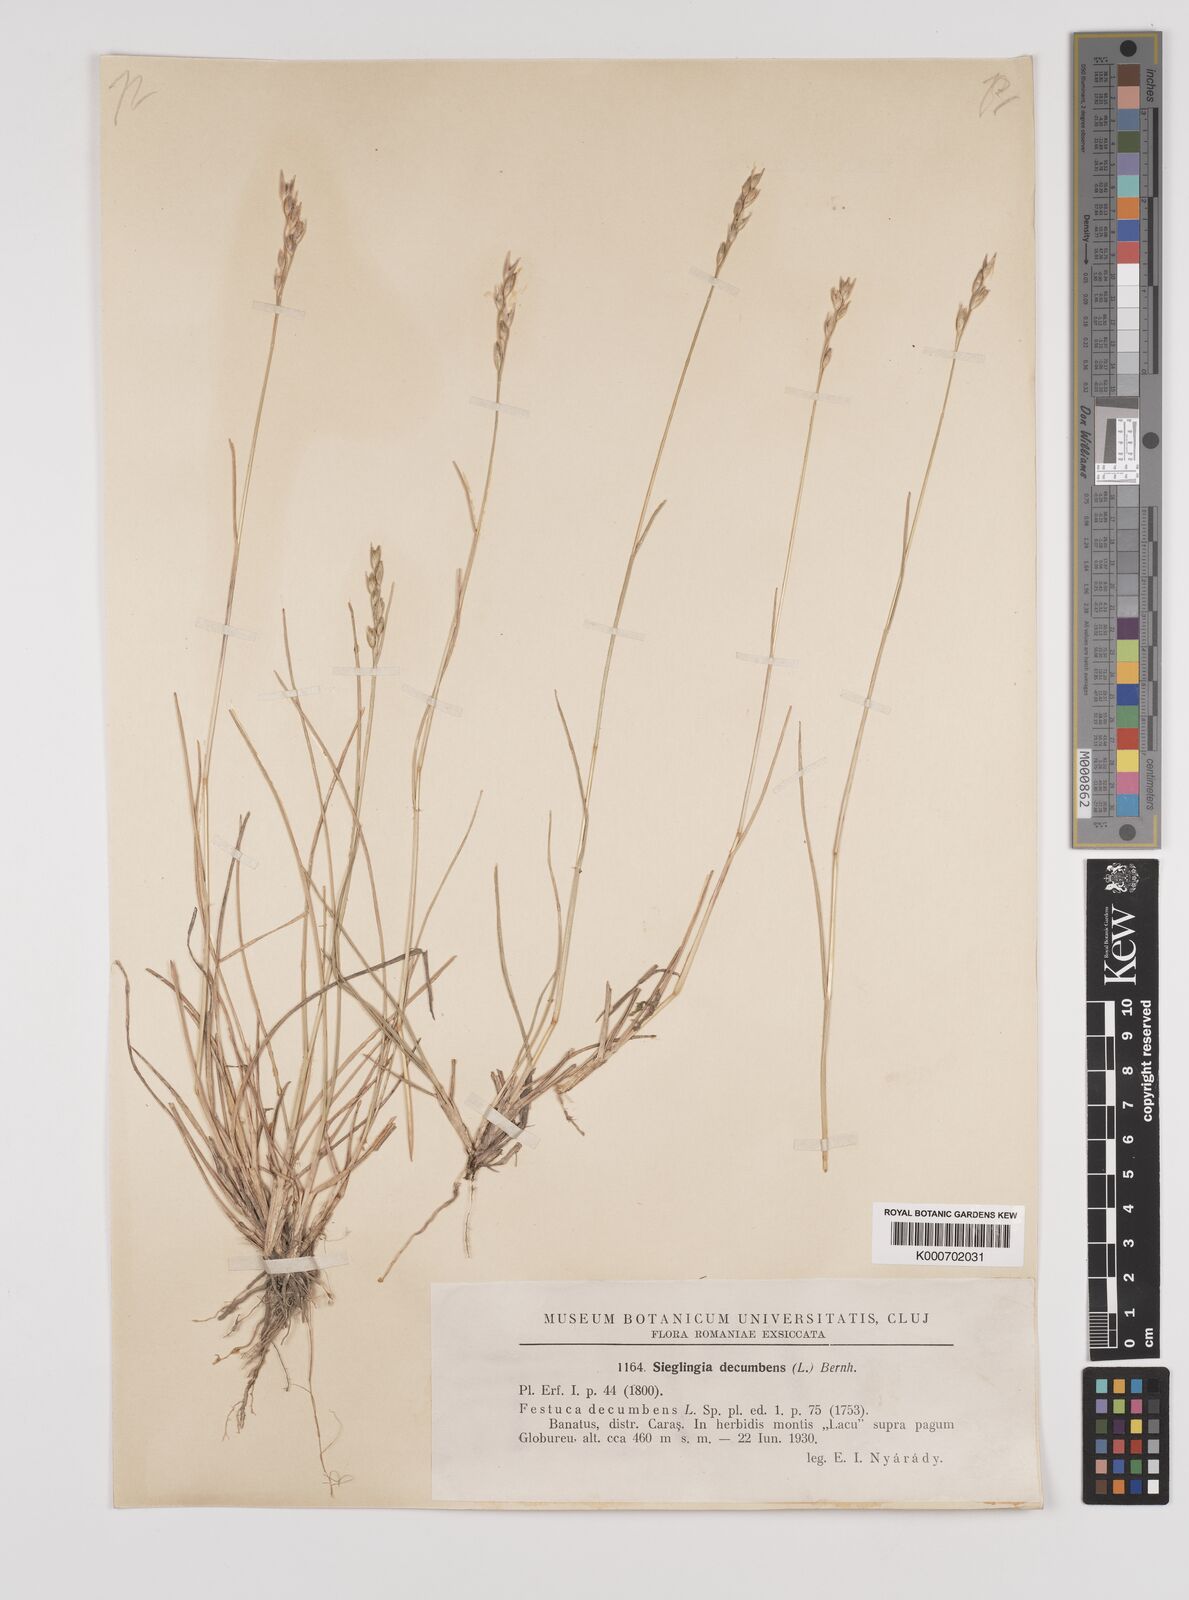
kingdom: Plantae
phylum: Tracheophyta
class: Liliopsida
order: Poales
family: Poaceae
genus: Danthonia
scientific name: Danthonia decumbens
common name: Common heathgrass
